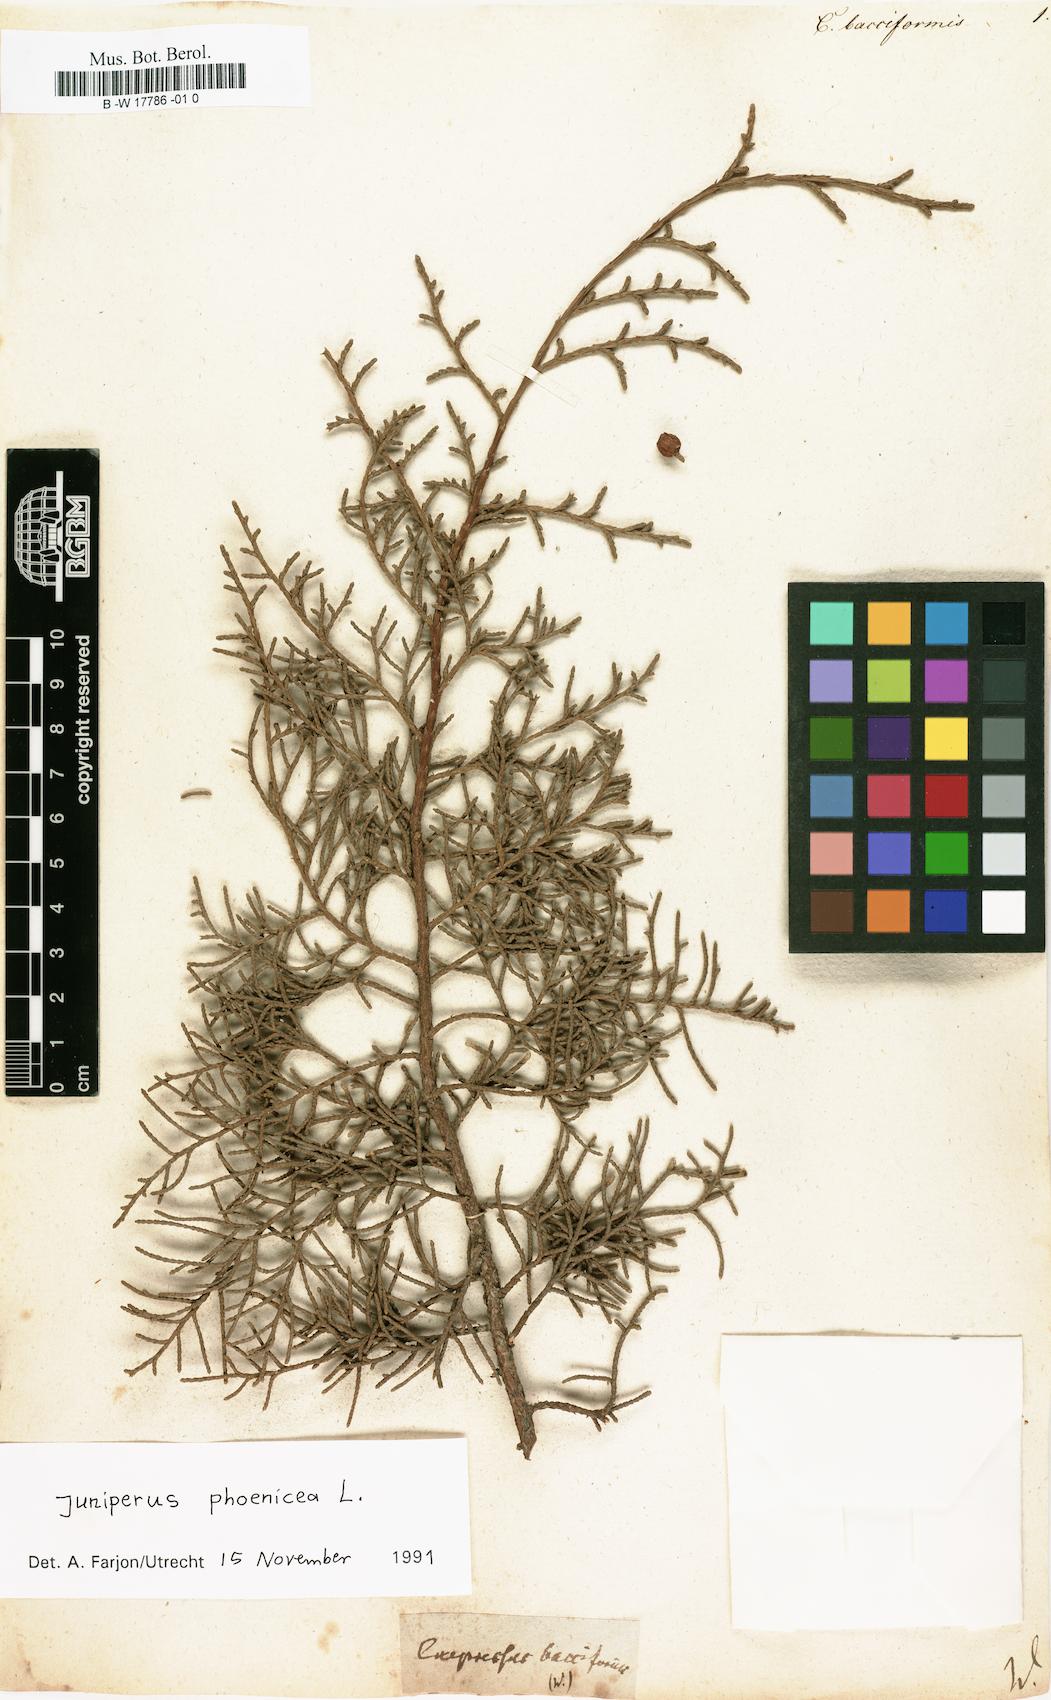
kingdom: Plantae
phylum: Tracheophyta
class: Pinopsida
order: Pinales
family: Cupressaceae
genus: Cupressus
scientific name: Cupressus bacciformis
